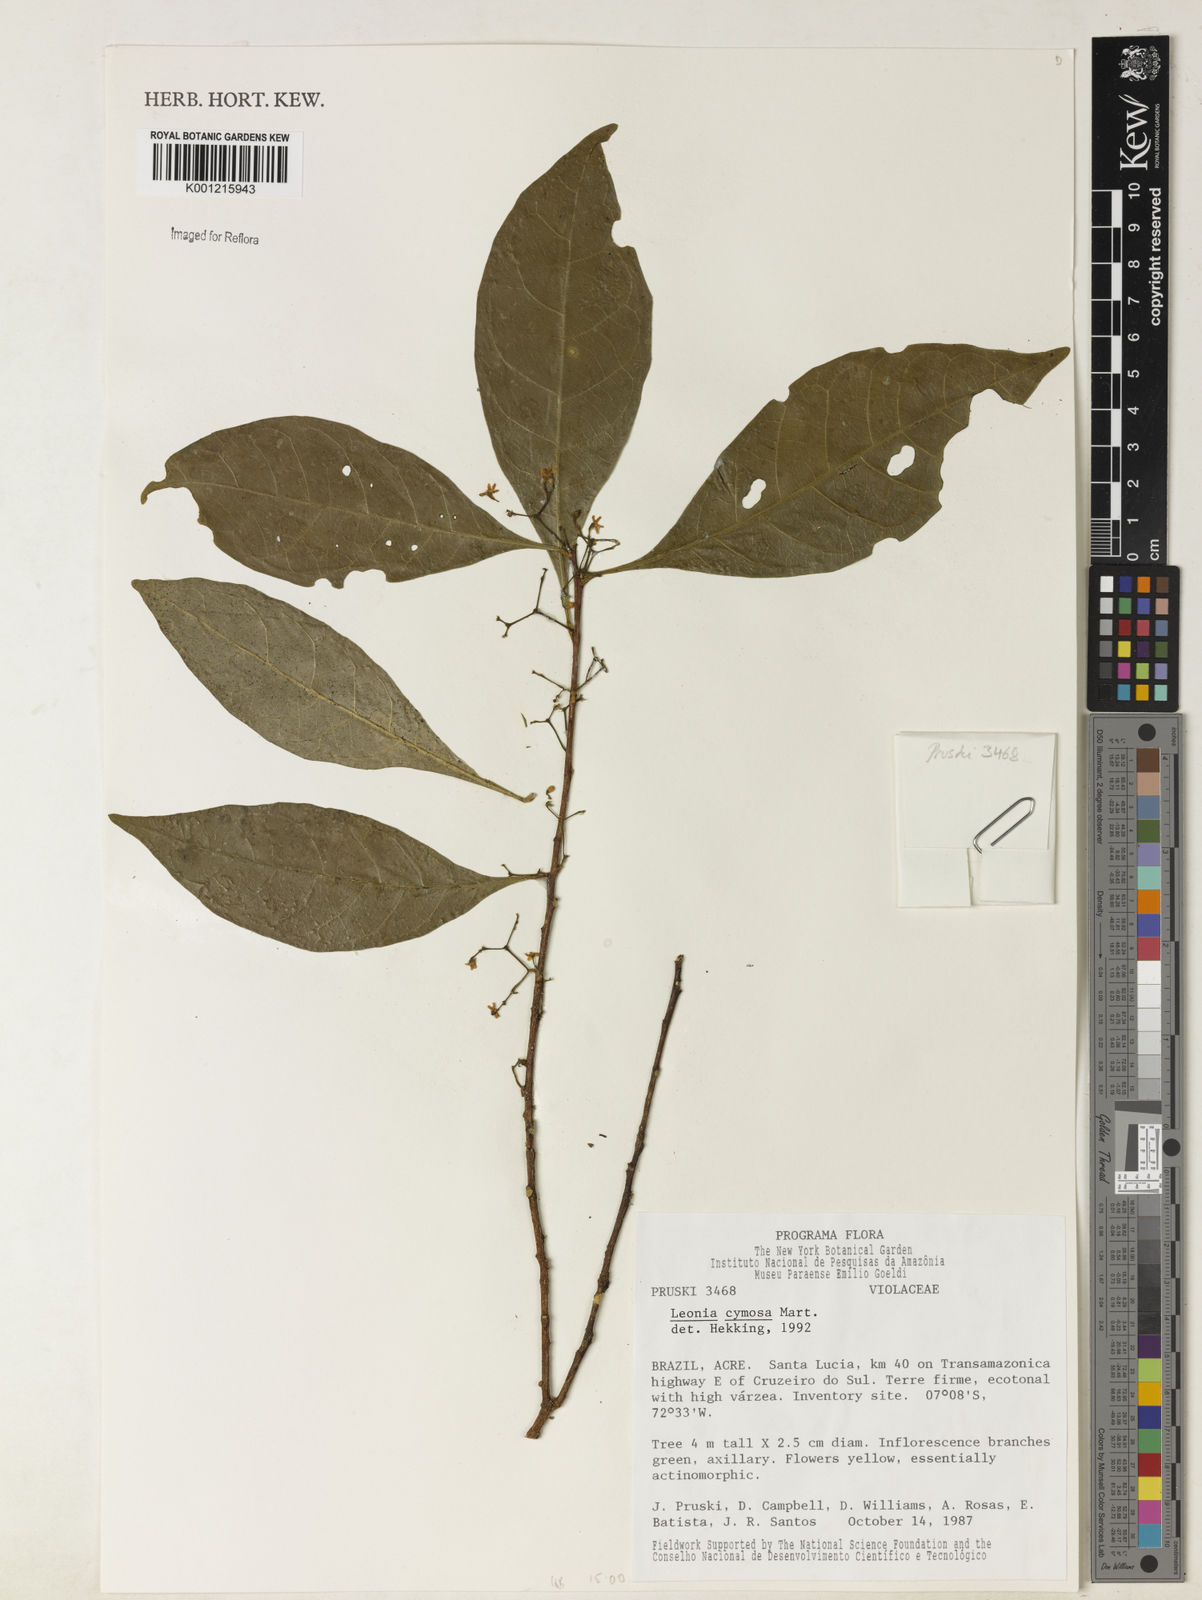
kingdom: Plantae
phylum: Tracheophyta
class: Magnoliopsida
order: Malpighiales
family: Violaceae
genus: Leonia
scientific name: Leonia cymosa
